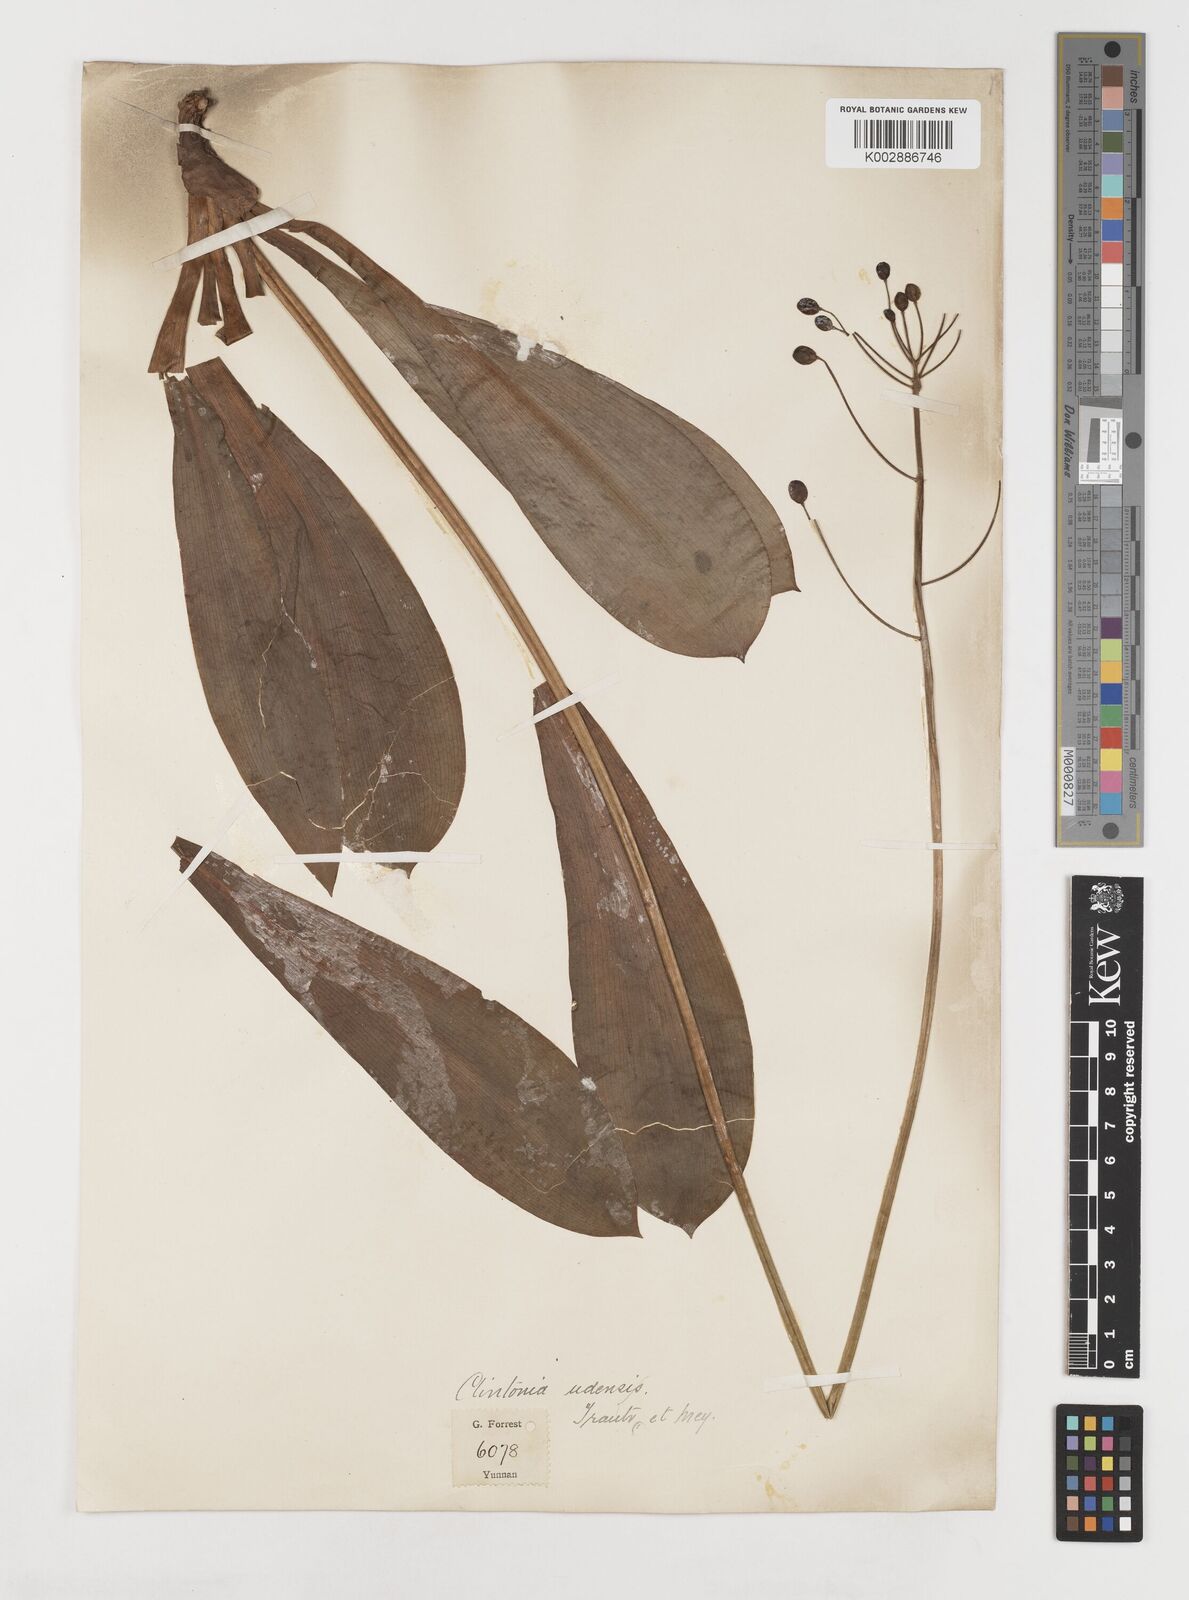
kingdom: Plantae
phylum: Tracheophyta
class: Liliopsida
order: Liliales
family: Liliaceae
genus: Clintonia
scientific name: Clintonia udensis
